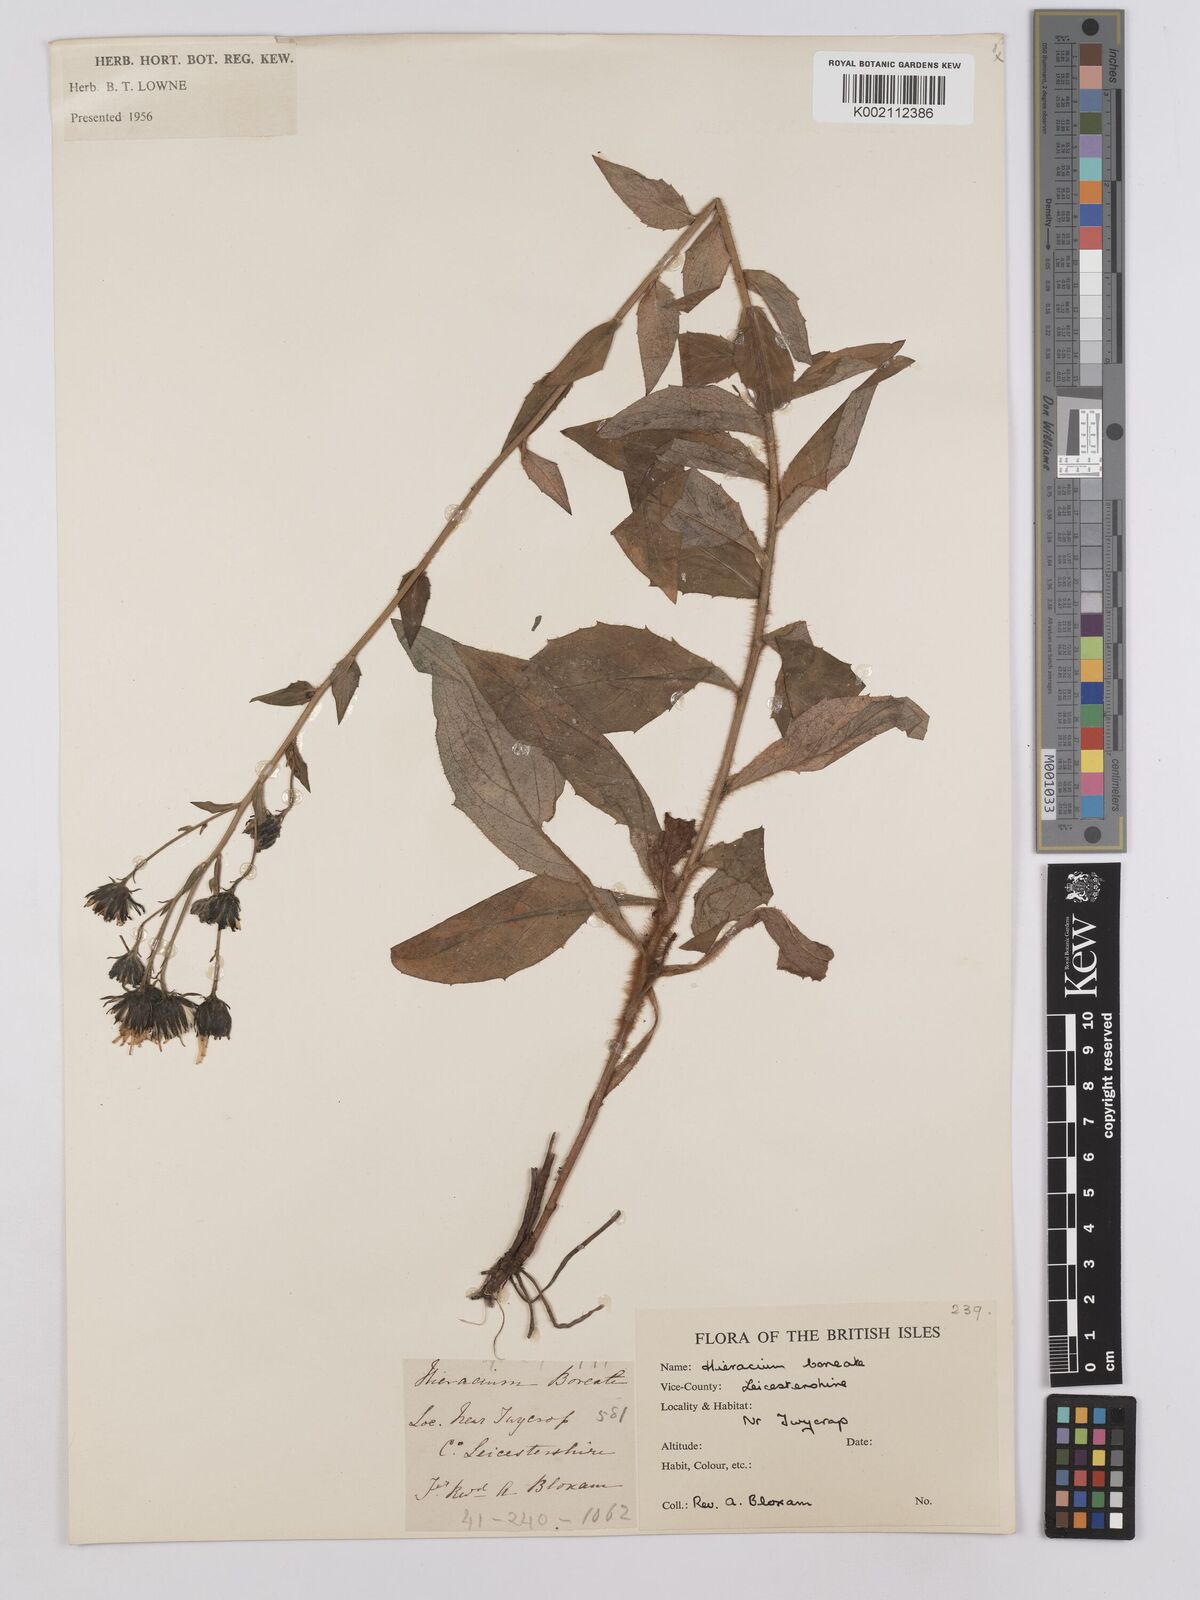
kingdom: Plantae
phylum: Tracheophyta
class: Magnoliopsida
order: Asterales
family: Asteraceae
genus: Hieracium
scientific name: Hieracium sabaudum
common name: New england hawkweed
